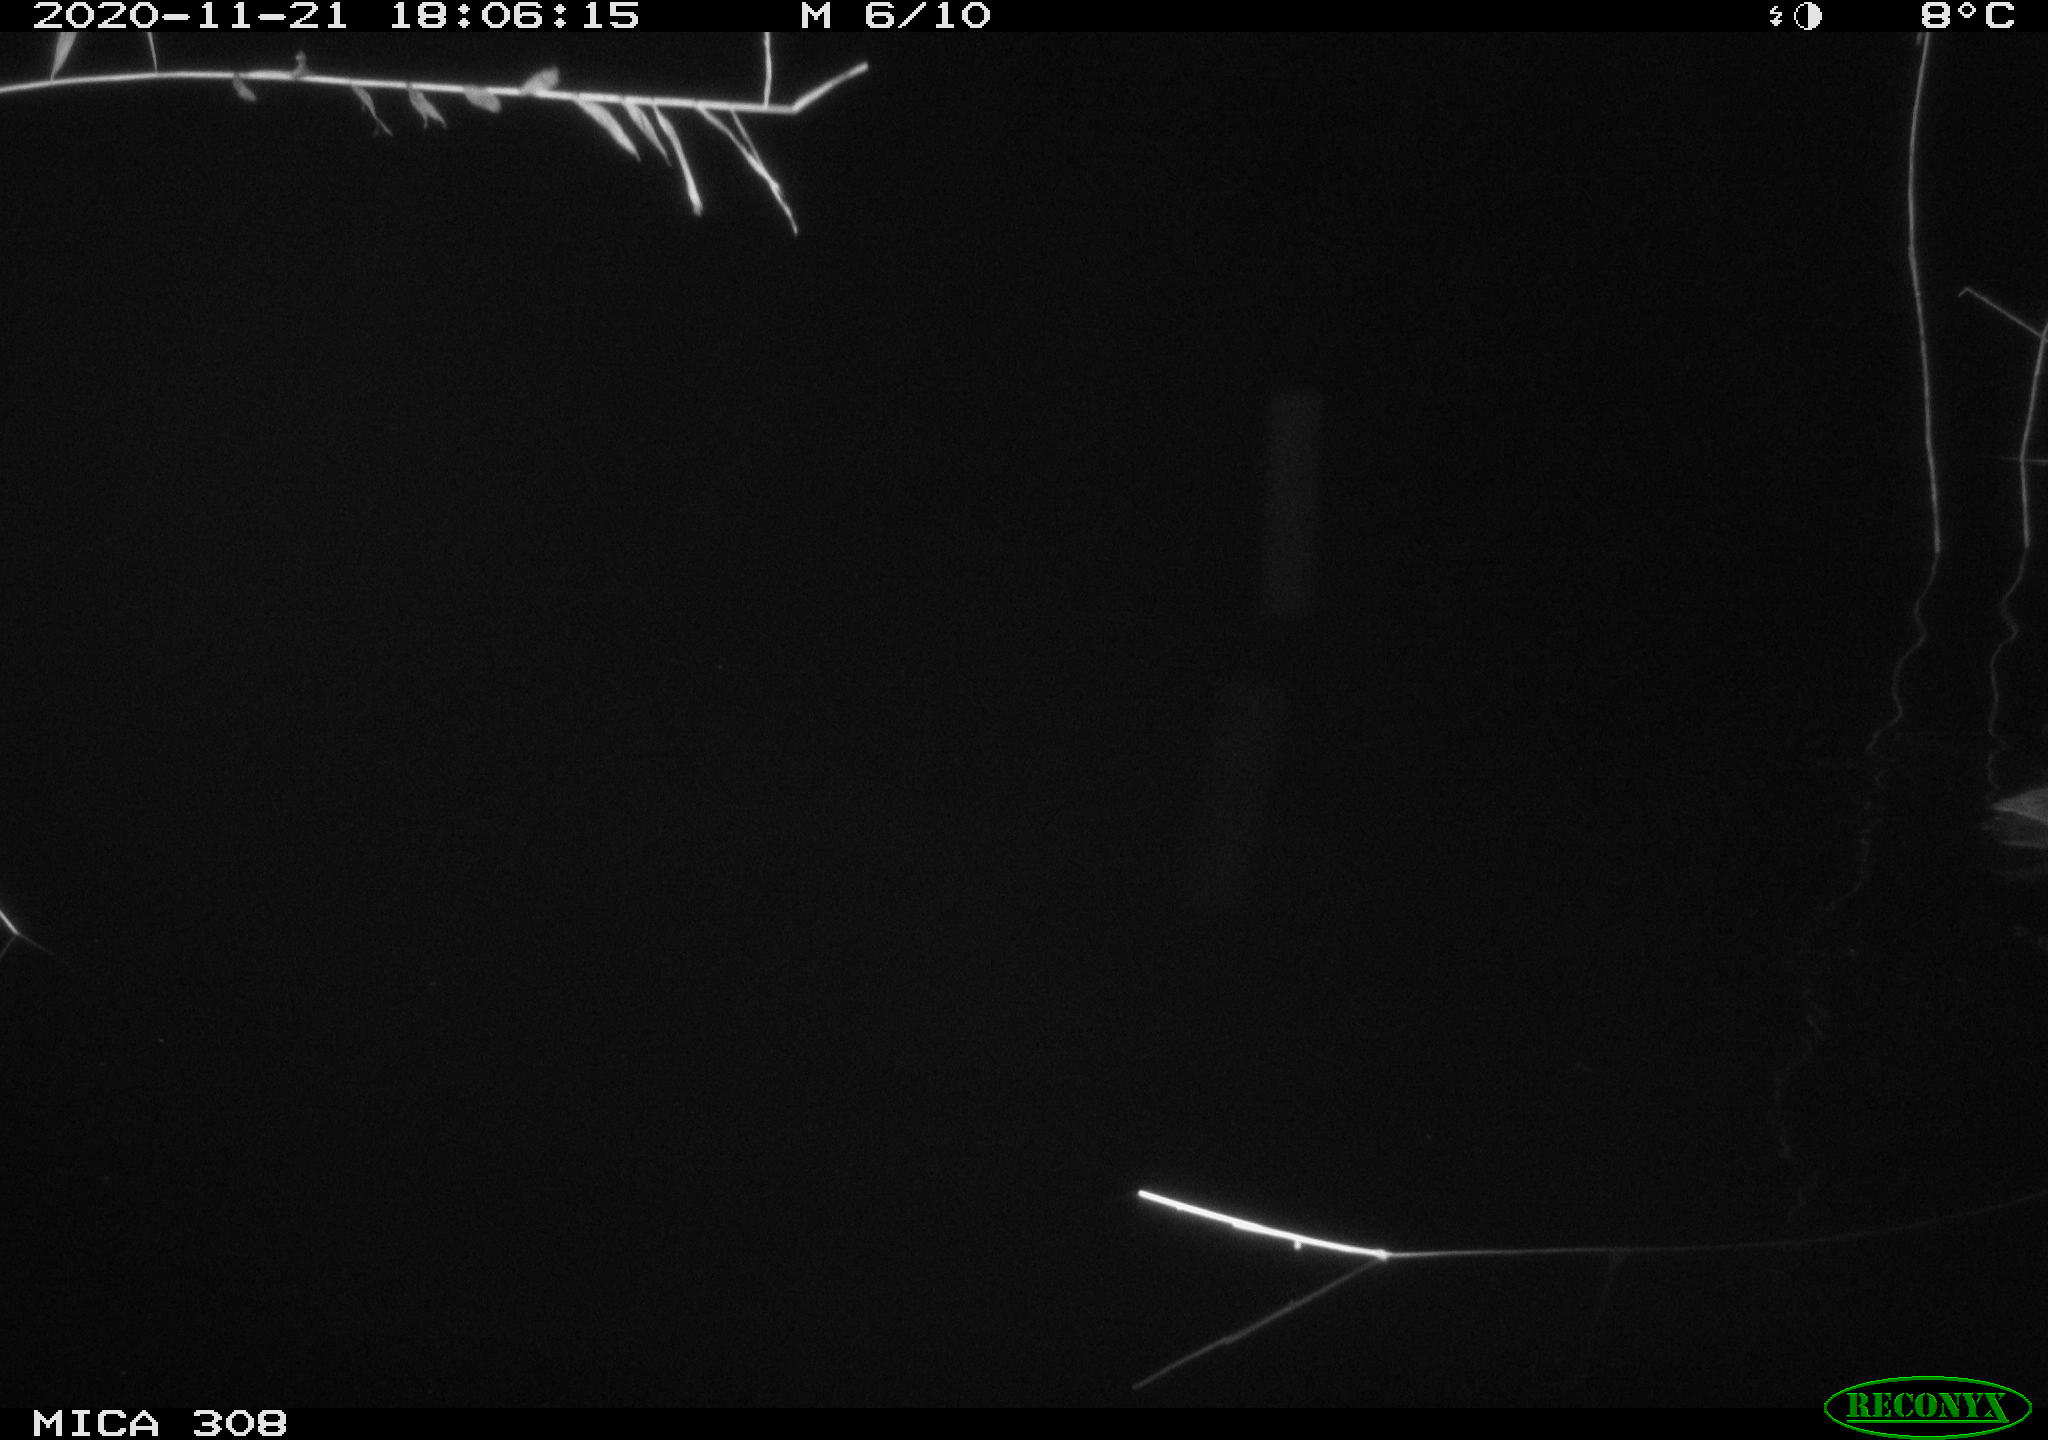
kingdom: Animalia
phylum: Chordata
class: Aves
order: Gruiformes
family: Rallidae
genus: Fulica
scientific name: Fulica atra
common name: Eurasian coot
